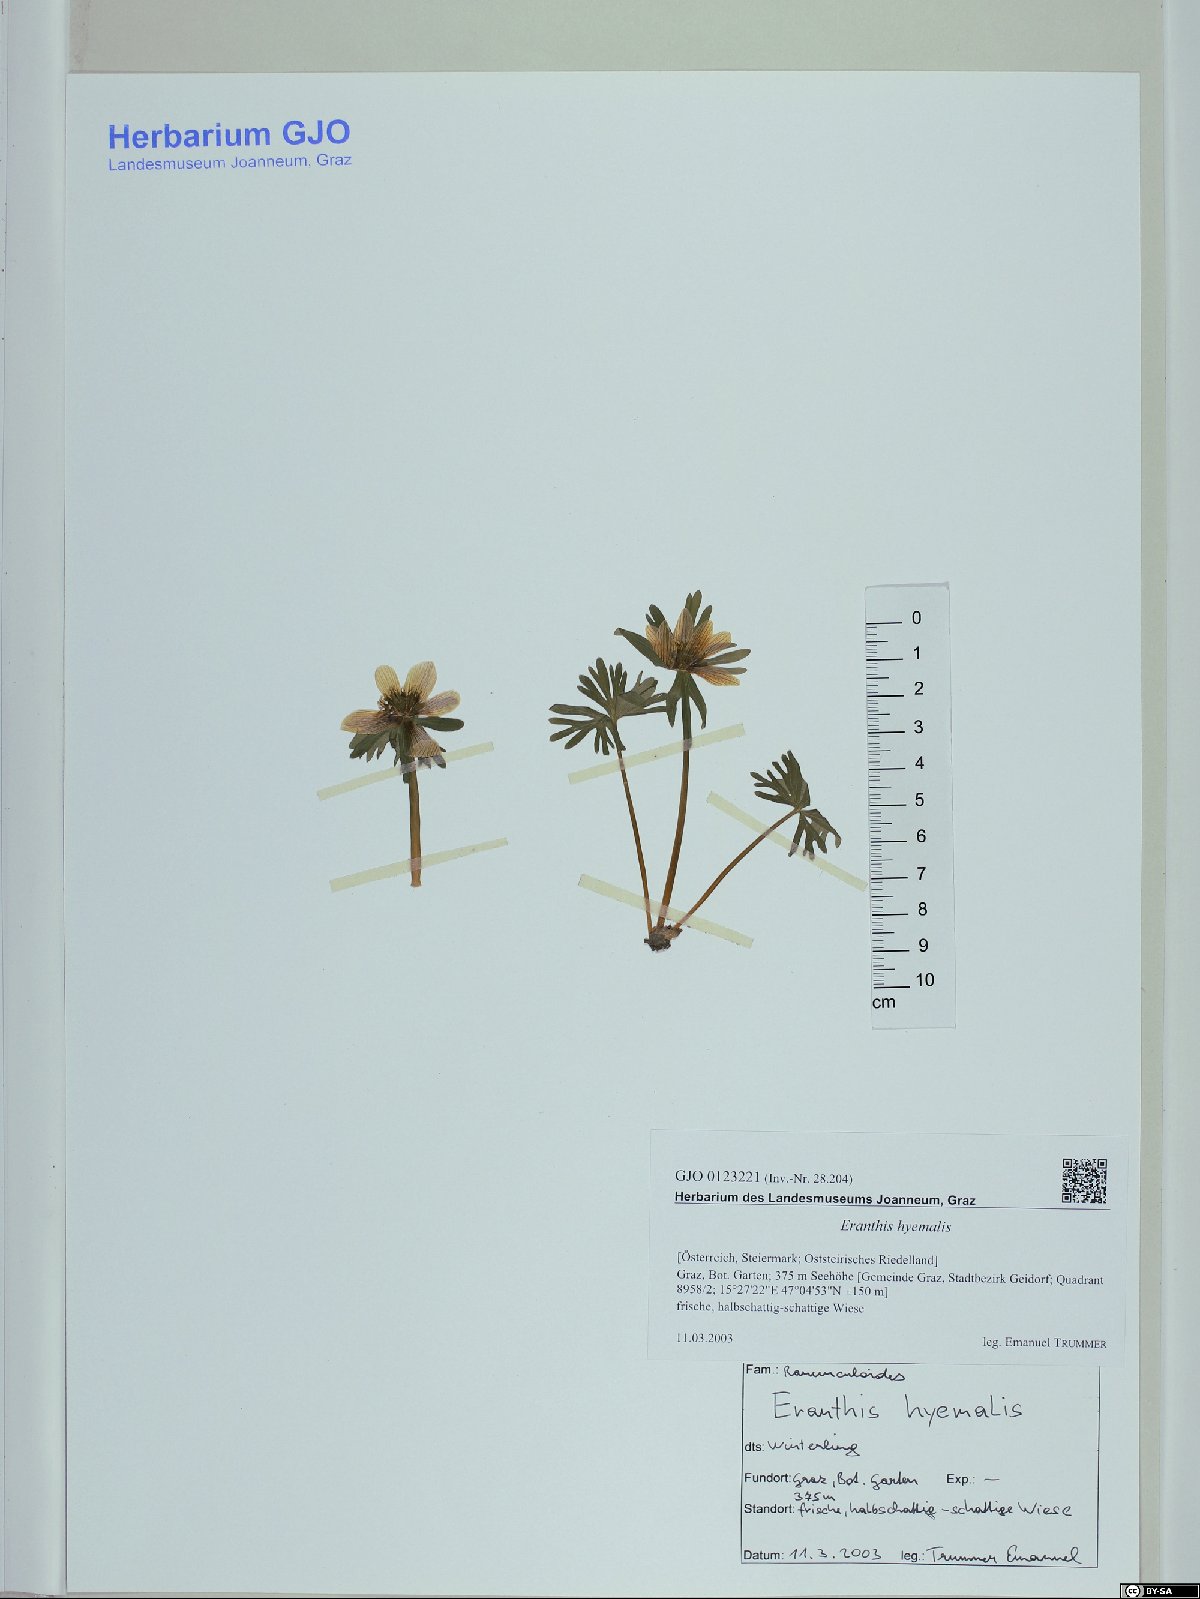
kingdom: Plantae
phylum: Tracheophyta
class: Magnoliopsida
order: Ranunculales
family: Ranunculaceae
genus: Eranthis
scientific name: Eranthis hyemalis
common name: Winter aconite
